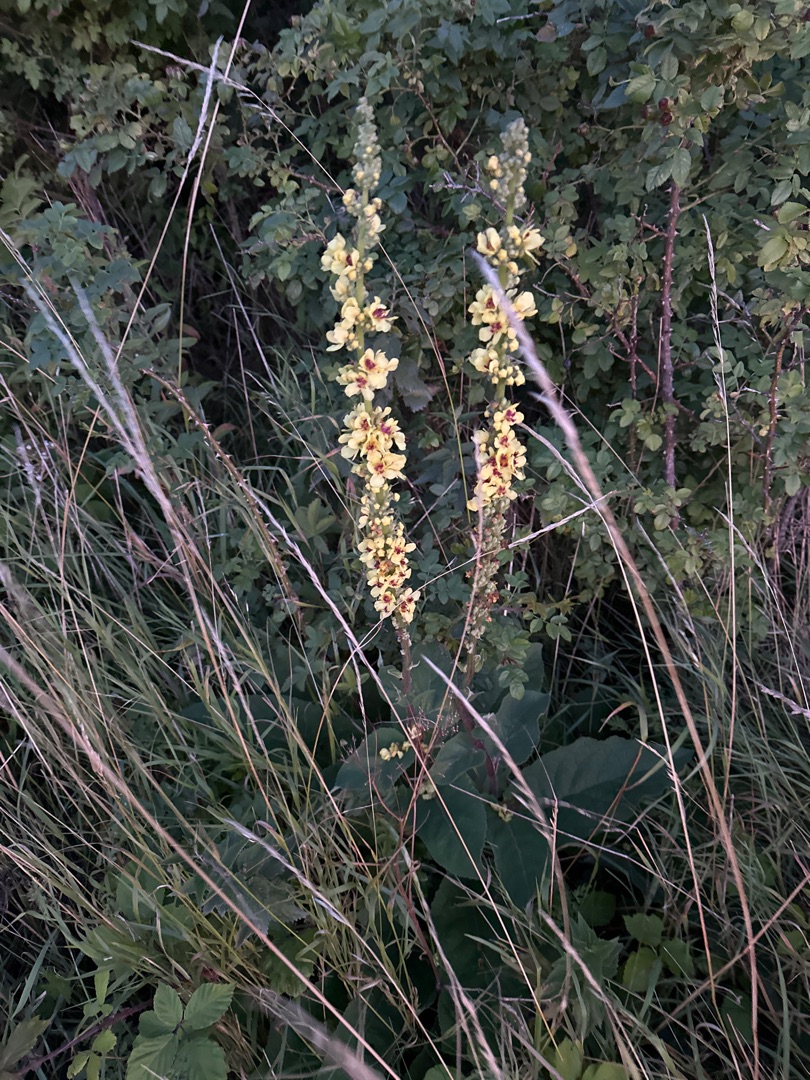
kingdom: Plantae
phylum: Tracheophyta
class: Magnoliopsida
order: Lamiales
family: Scrophulariaceae
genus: Verbascum
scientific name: Verbascum nigrum
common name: Mørk kongelys
